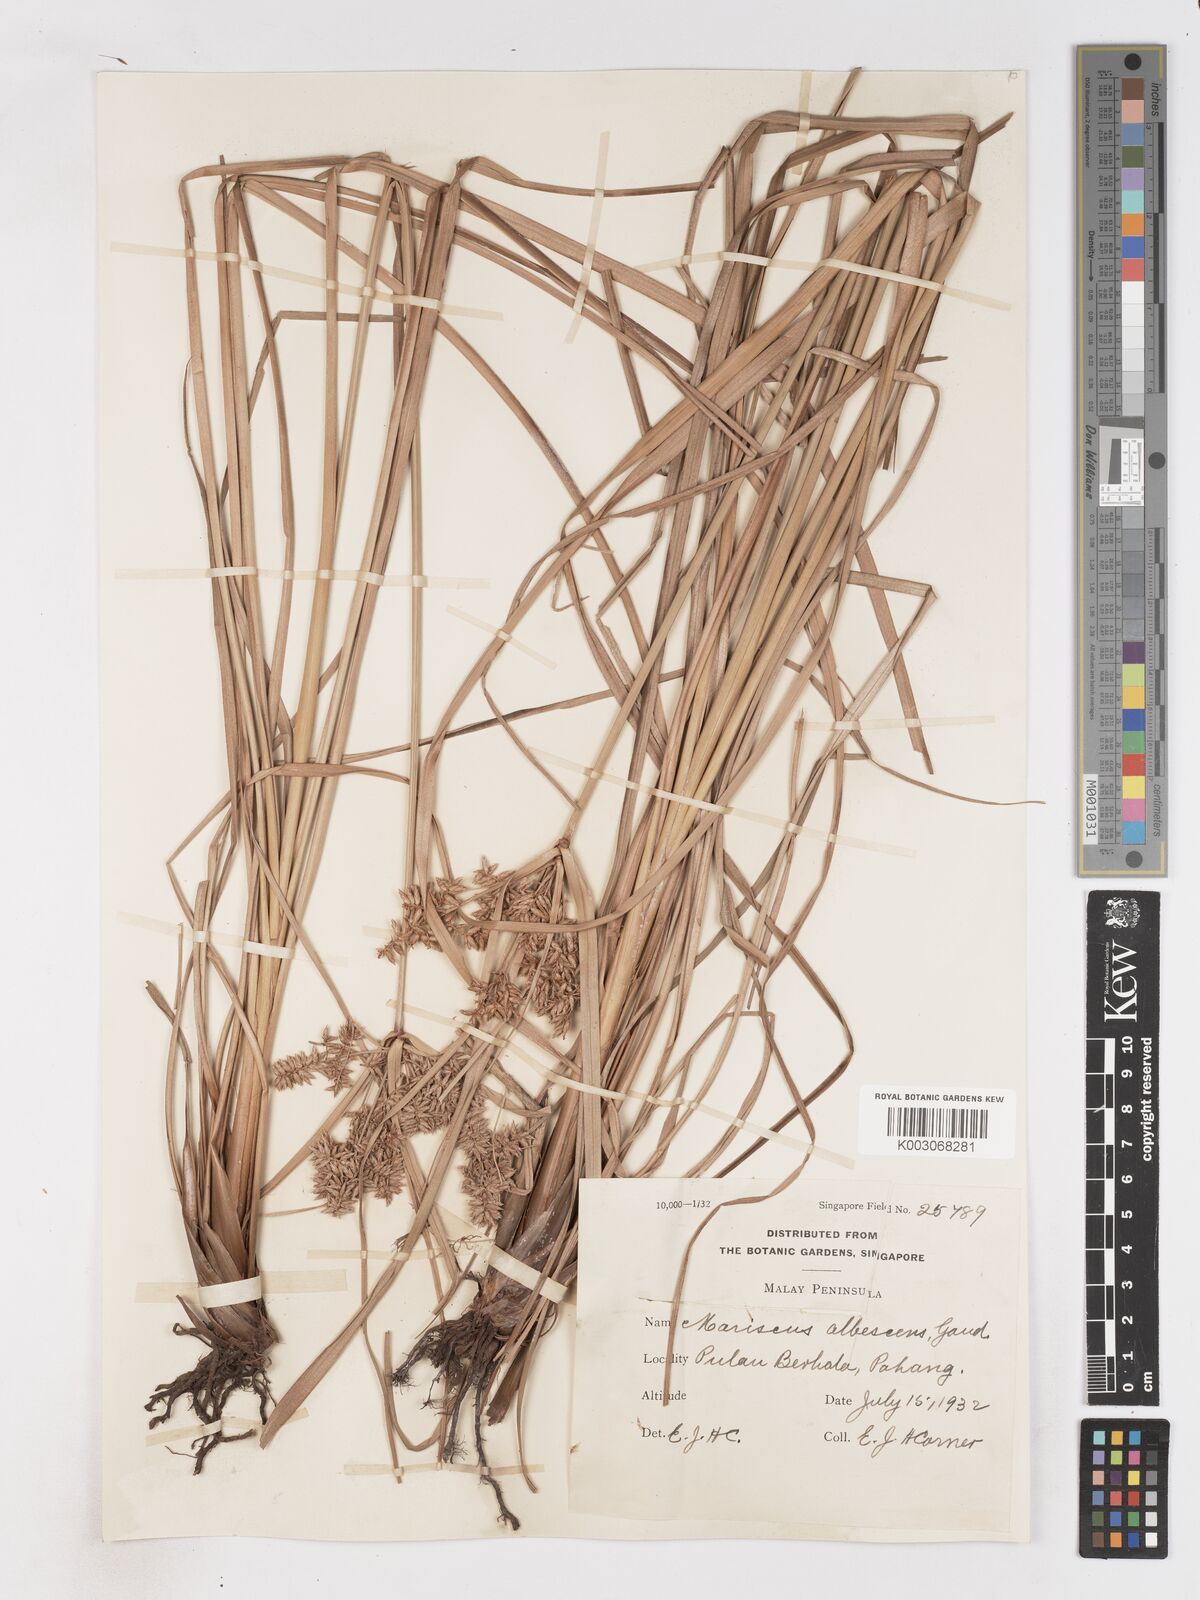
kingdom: Plantae
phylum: Tracheophyta
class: Liliopsida
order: Poales
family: Cyperaceae
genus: Cyperus
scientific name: Cyperus javanicus
